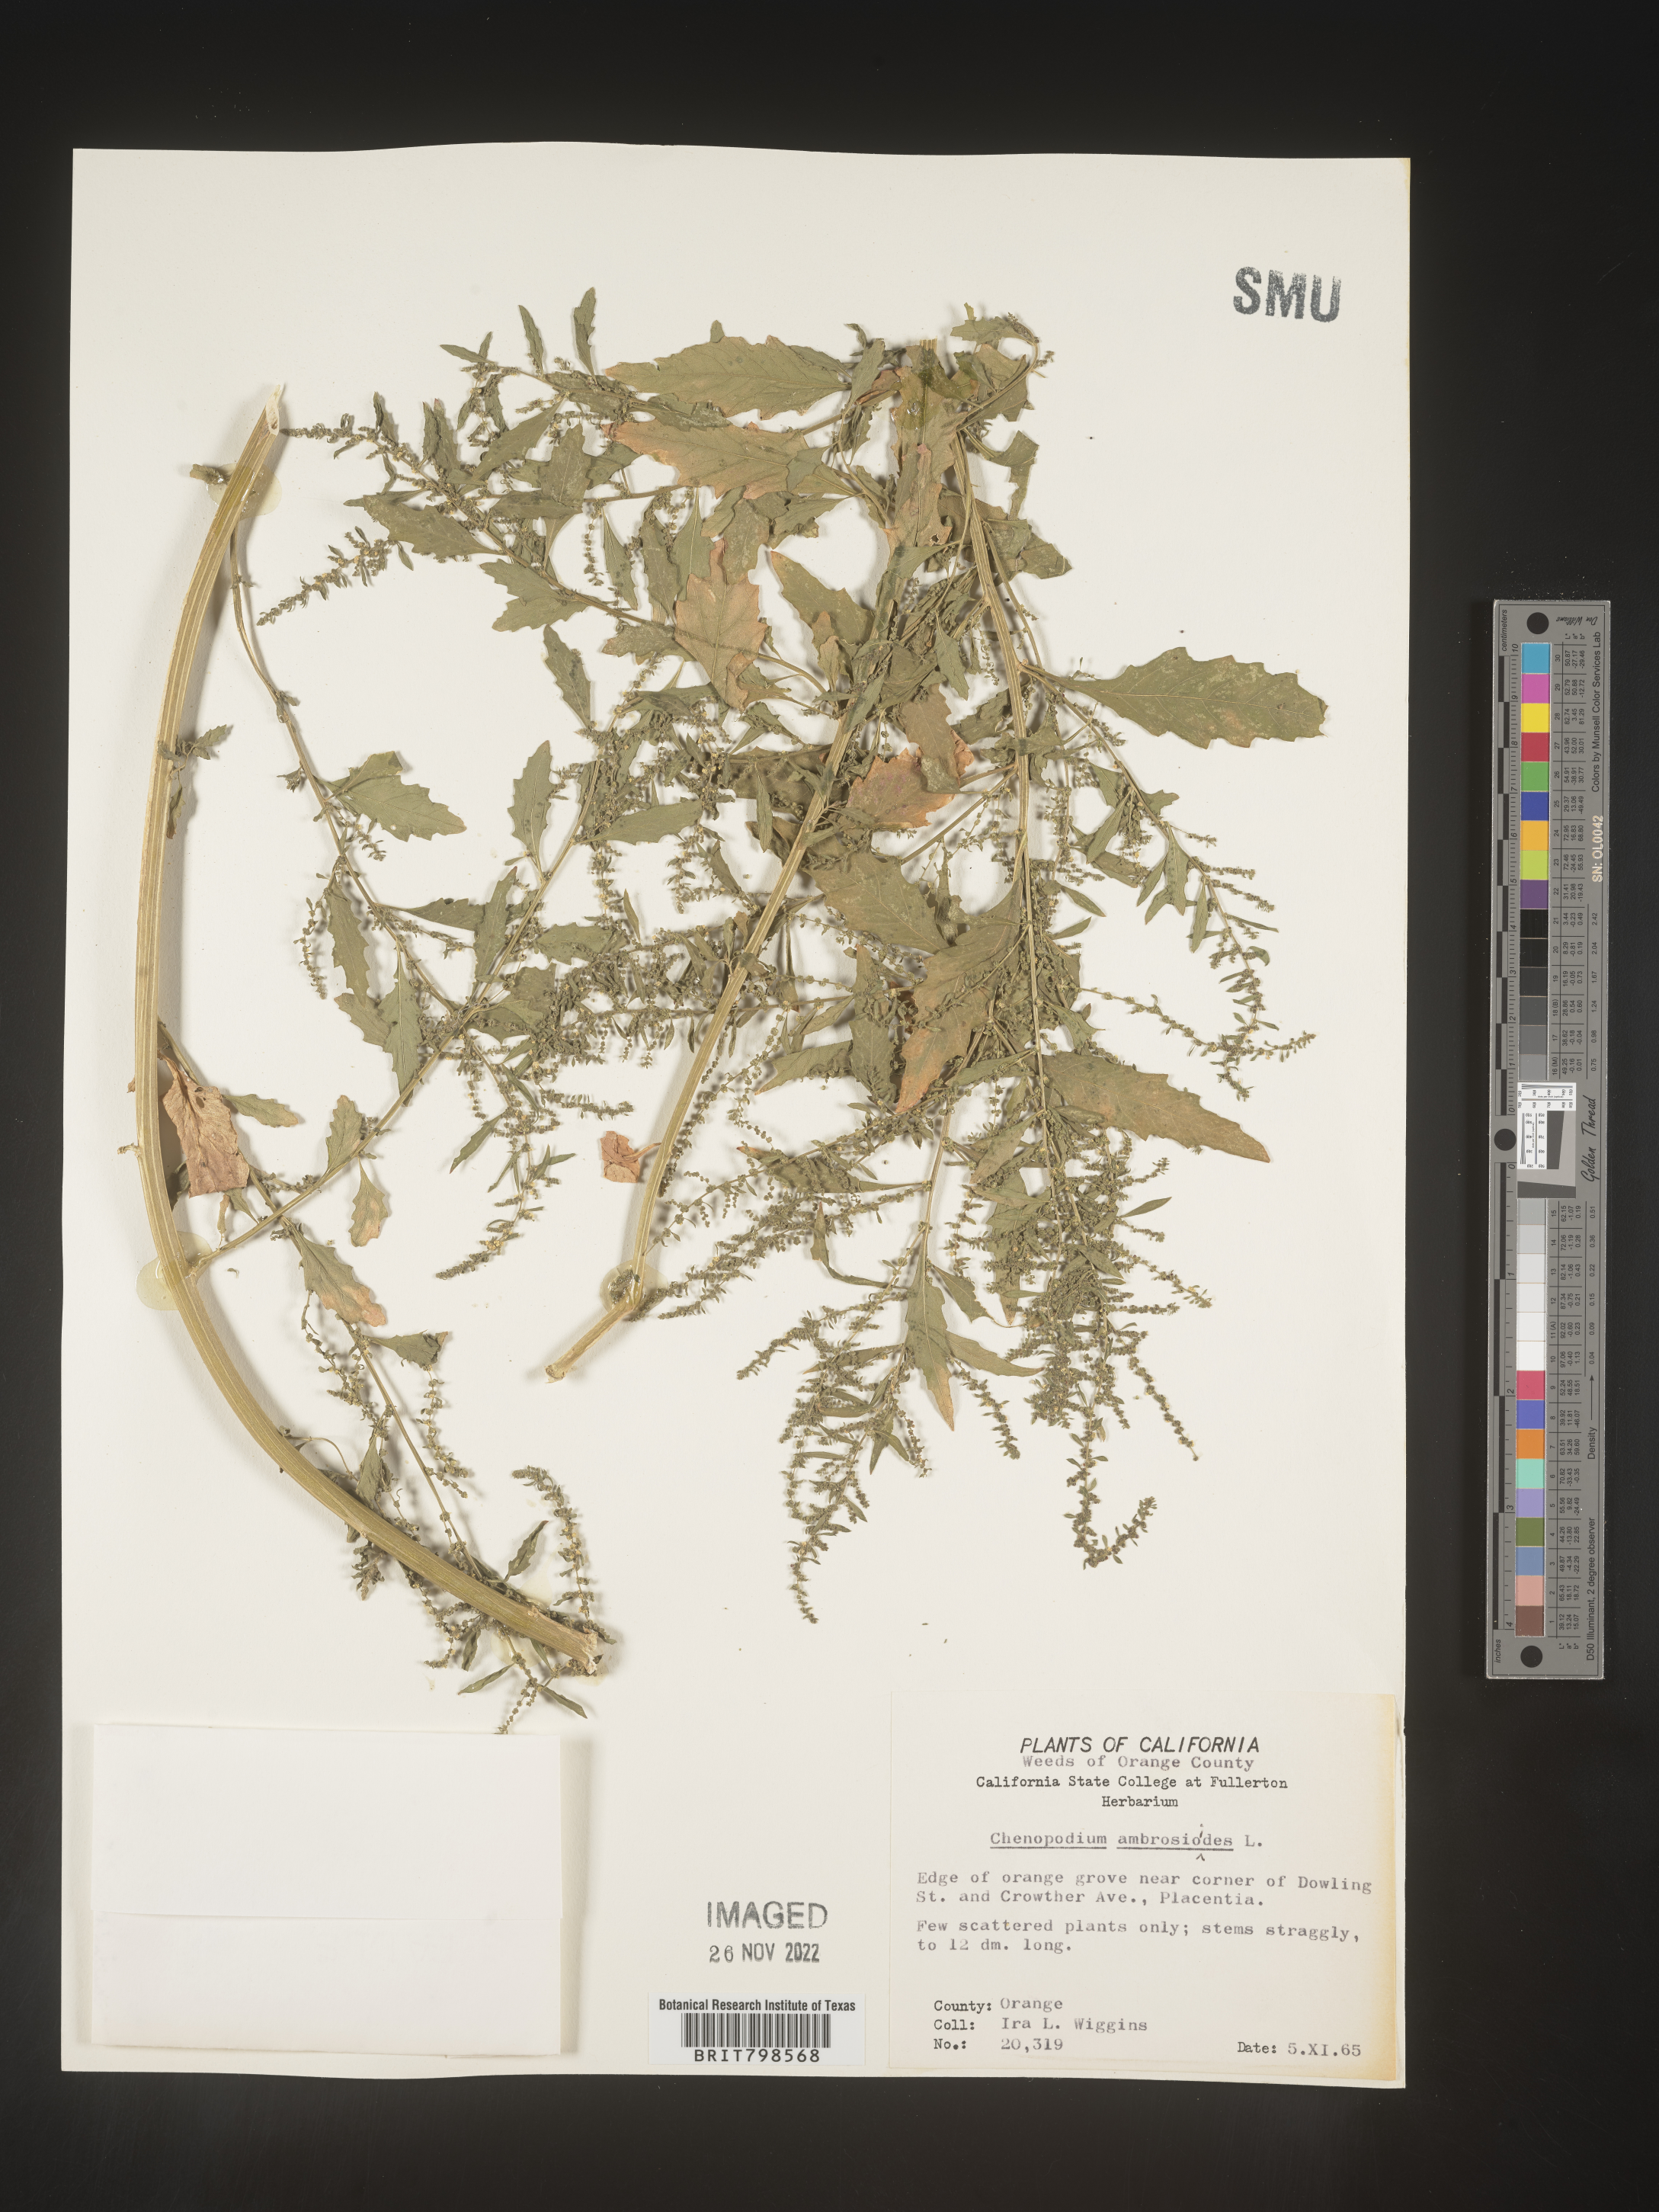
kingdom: Plantae
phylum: Tracheophyta
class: Magnoliopsida
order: Caryophyllales
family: Amaranthaceae
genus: Dysphania
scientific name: Dysphania ambrosioides
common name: Wormseed
